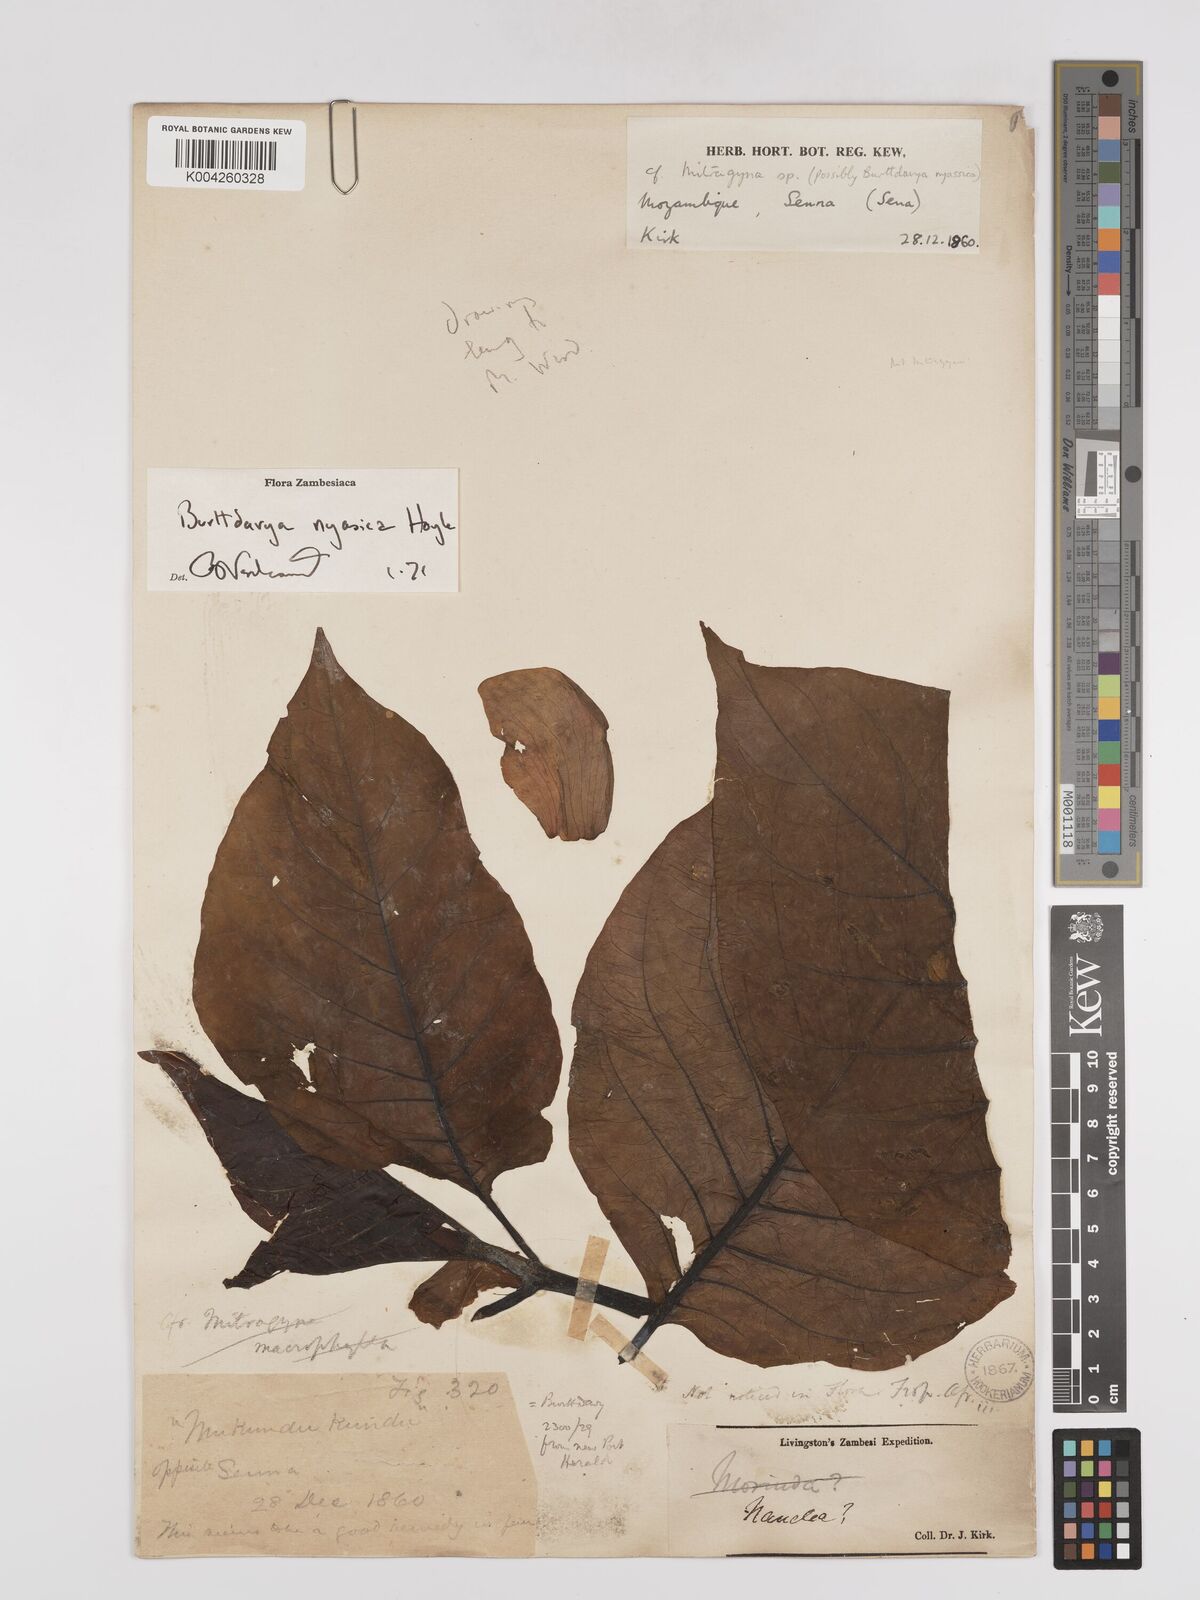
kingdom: Plantae
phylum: Tracheophyta
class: Magnoliopsida
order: Gentianales
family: Rubiaceae
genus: Nauclea
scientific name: Nauclea nyasica
